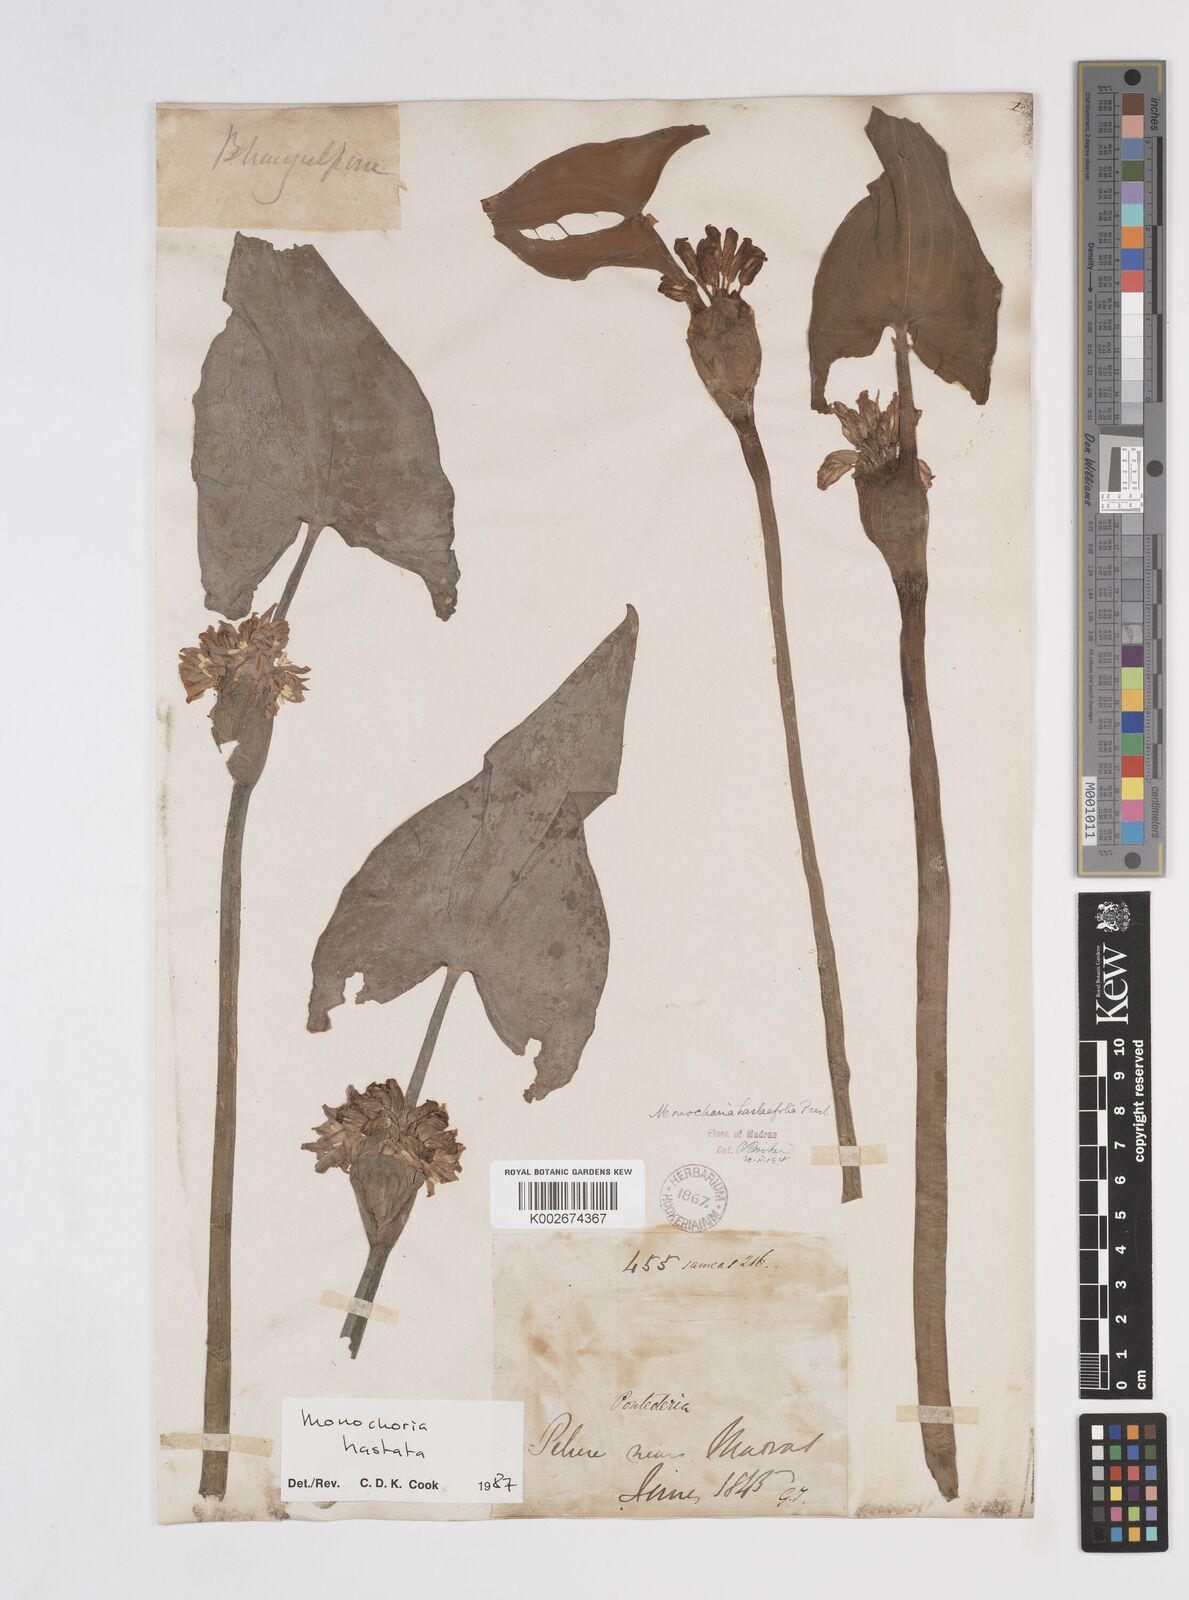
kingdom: Plantae
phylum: Tracheophyta
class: Liliopsida
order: Commelinales
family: Pontederiaceae
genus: Pontederia
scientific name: Pontederia hastata
